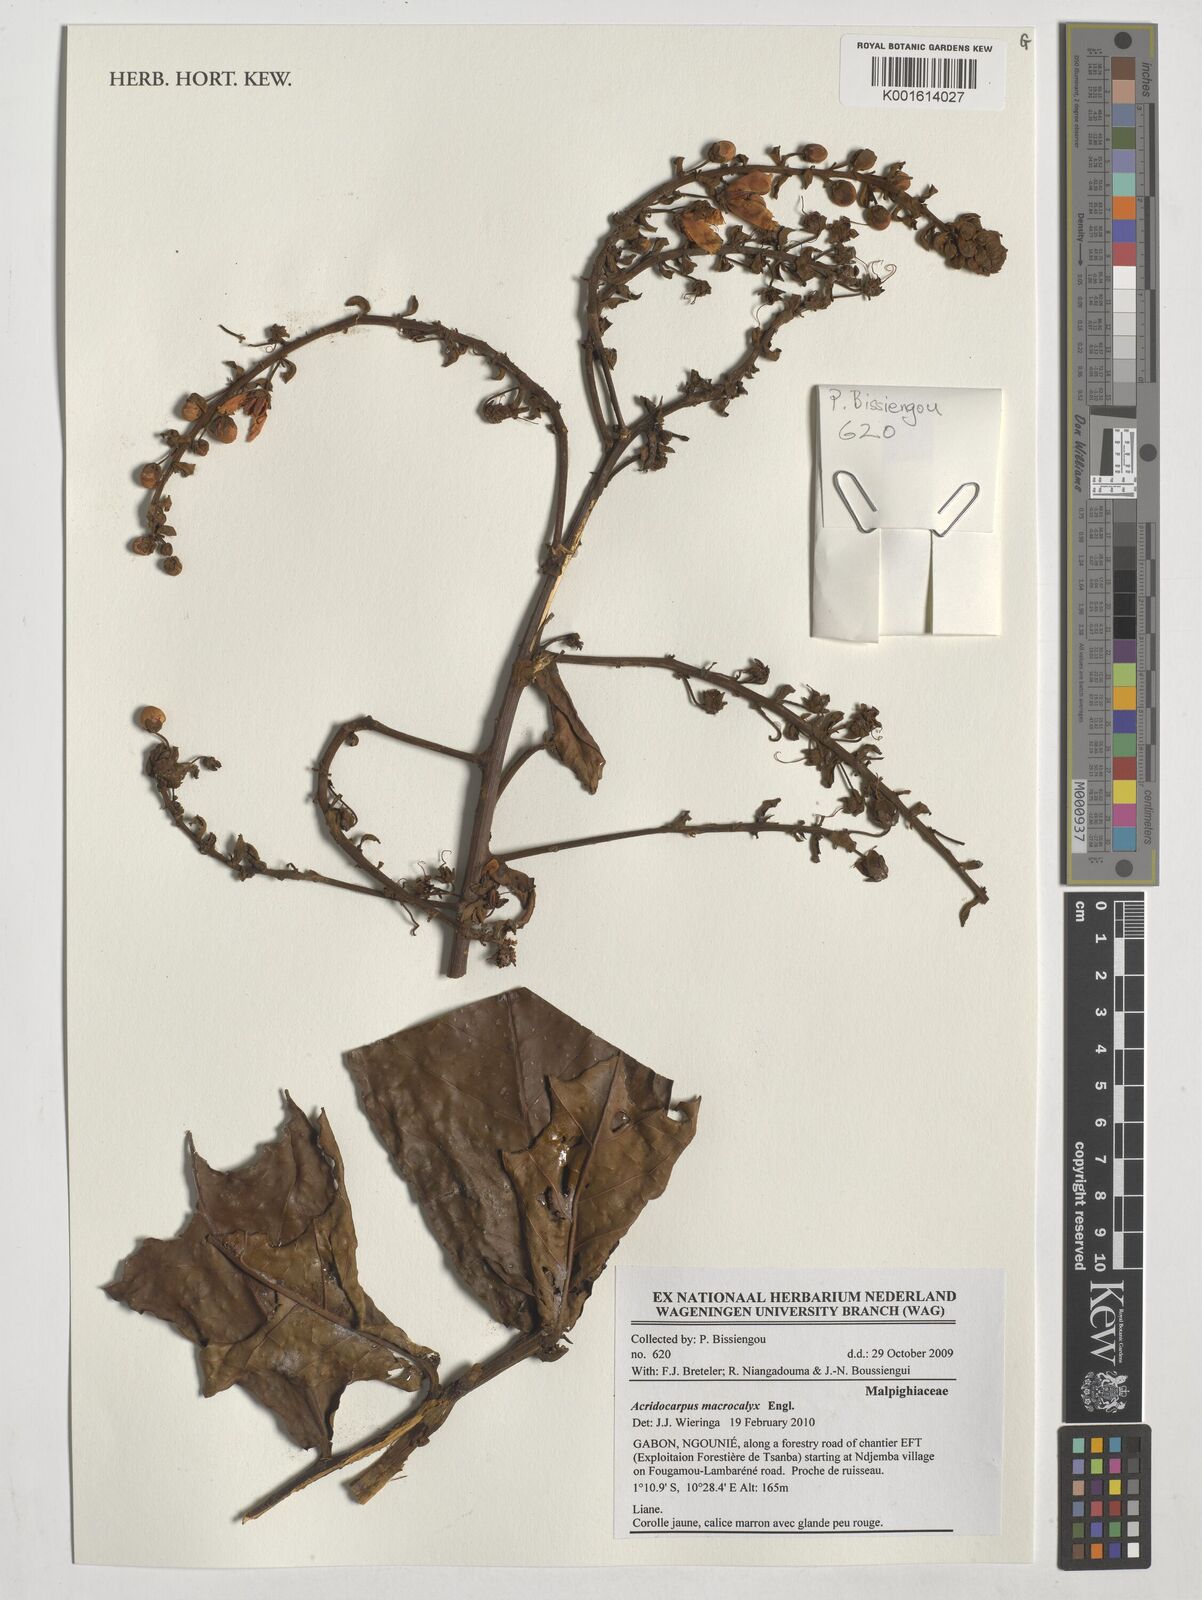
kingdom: Plantae
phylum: Tracheophyta
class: Magnoliopsida
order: Malpighiales
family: Malpighiaceae
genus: Acridocarpus
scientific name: Acridocarpus macrocalyx
